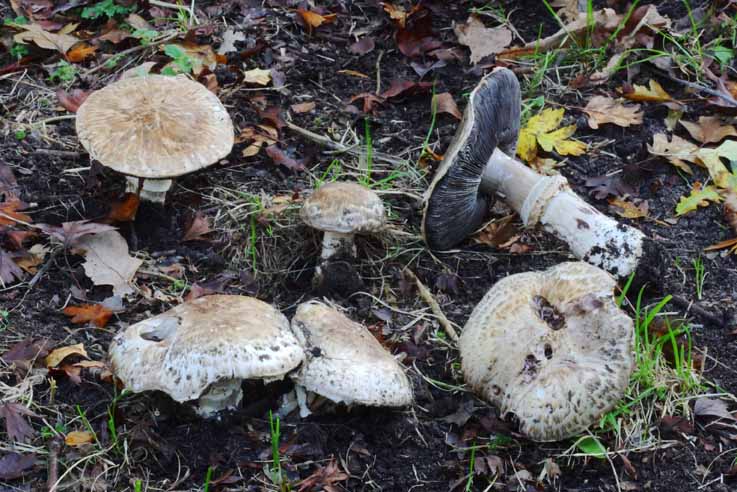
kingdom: Fungi
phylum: Basidiomycota
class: Agaricomycetes
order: Agaricales
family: Agaricaceae
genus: Agaricus
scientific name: Agaricus subperonatus
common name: knippe-champignon
